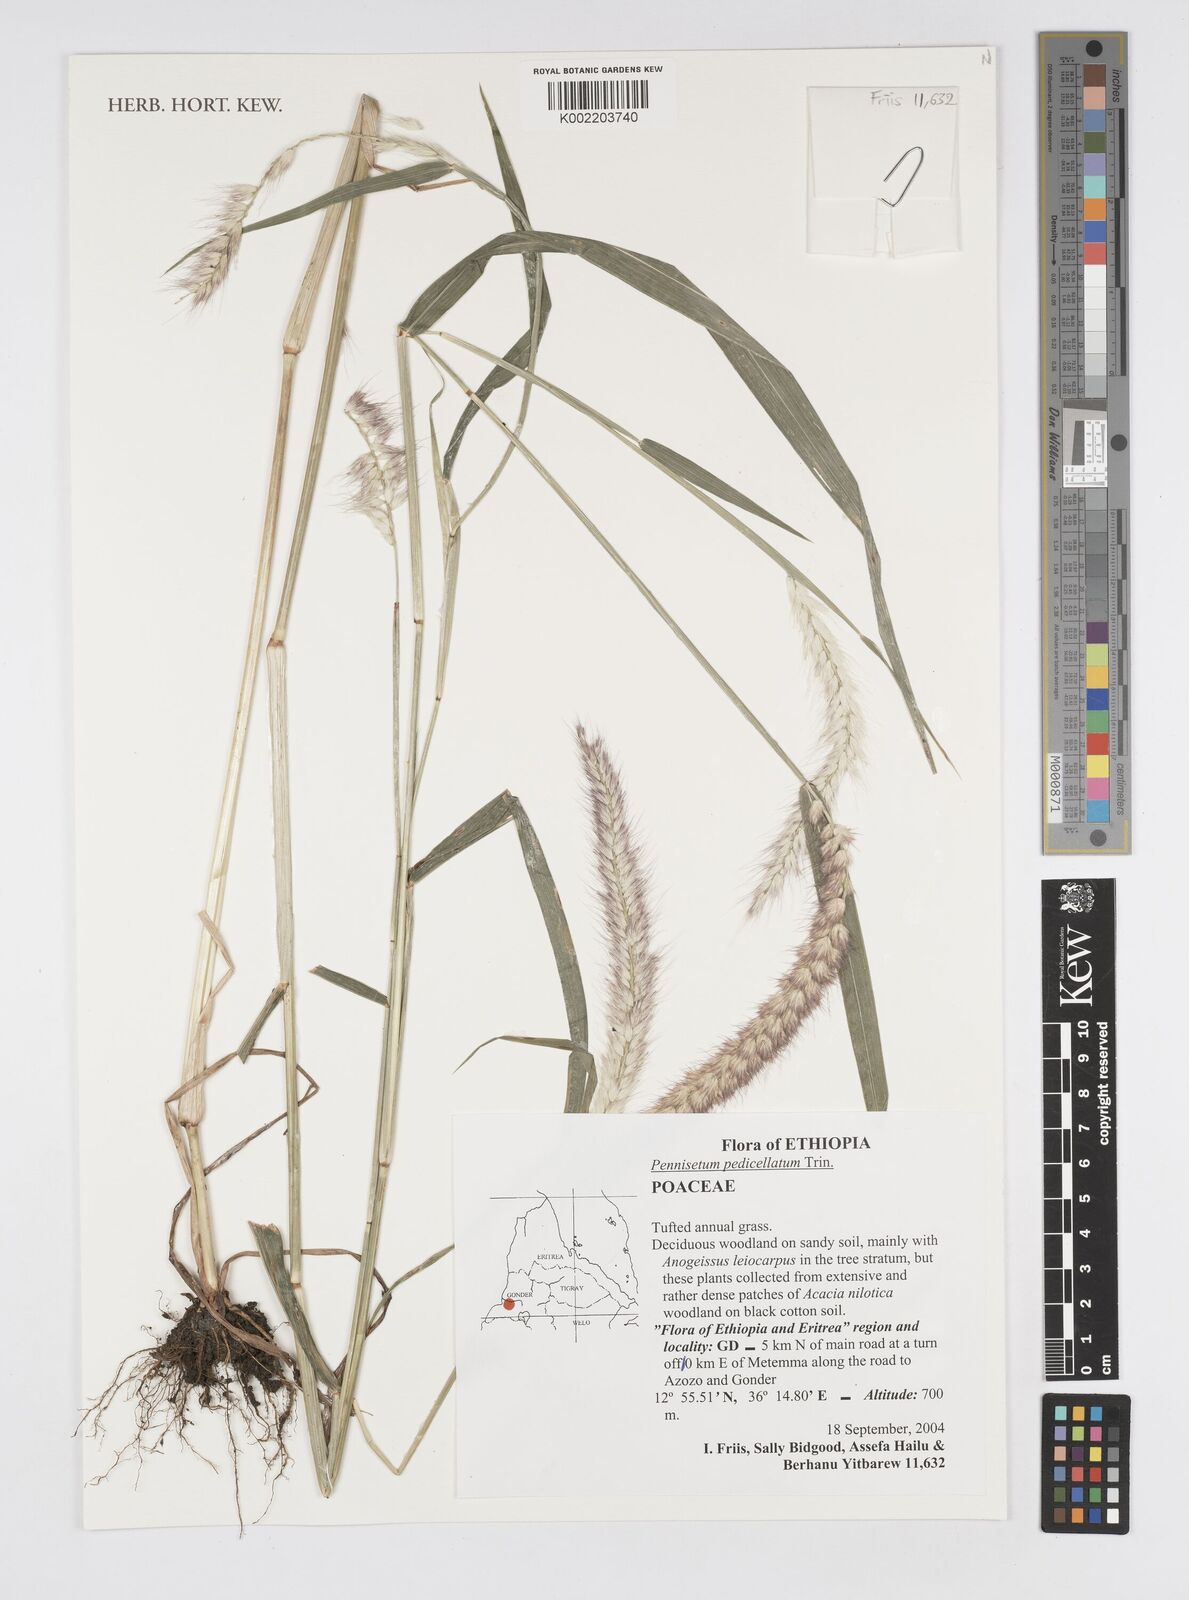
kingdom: Plantae
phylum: Tracheophyta
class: Liliopsida
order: Poales
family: Poaceae
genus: Cenchrus
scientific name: Cenchrus pedicellatus
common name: Hairy fountain grass
